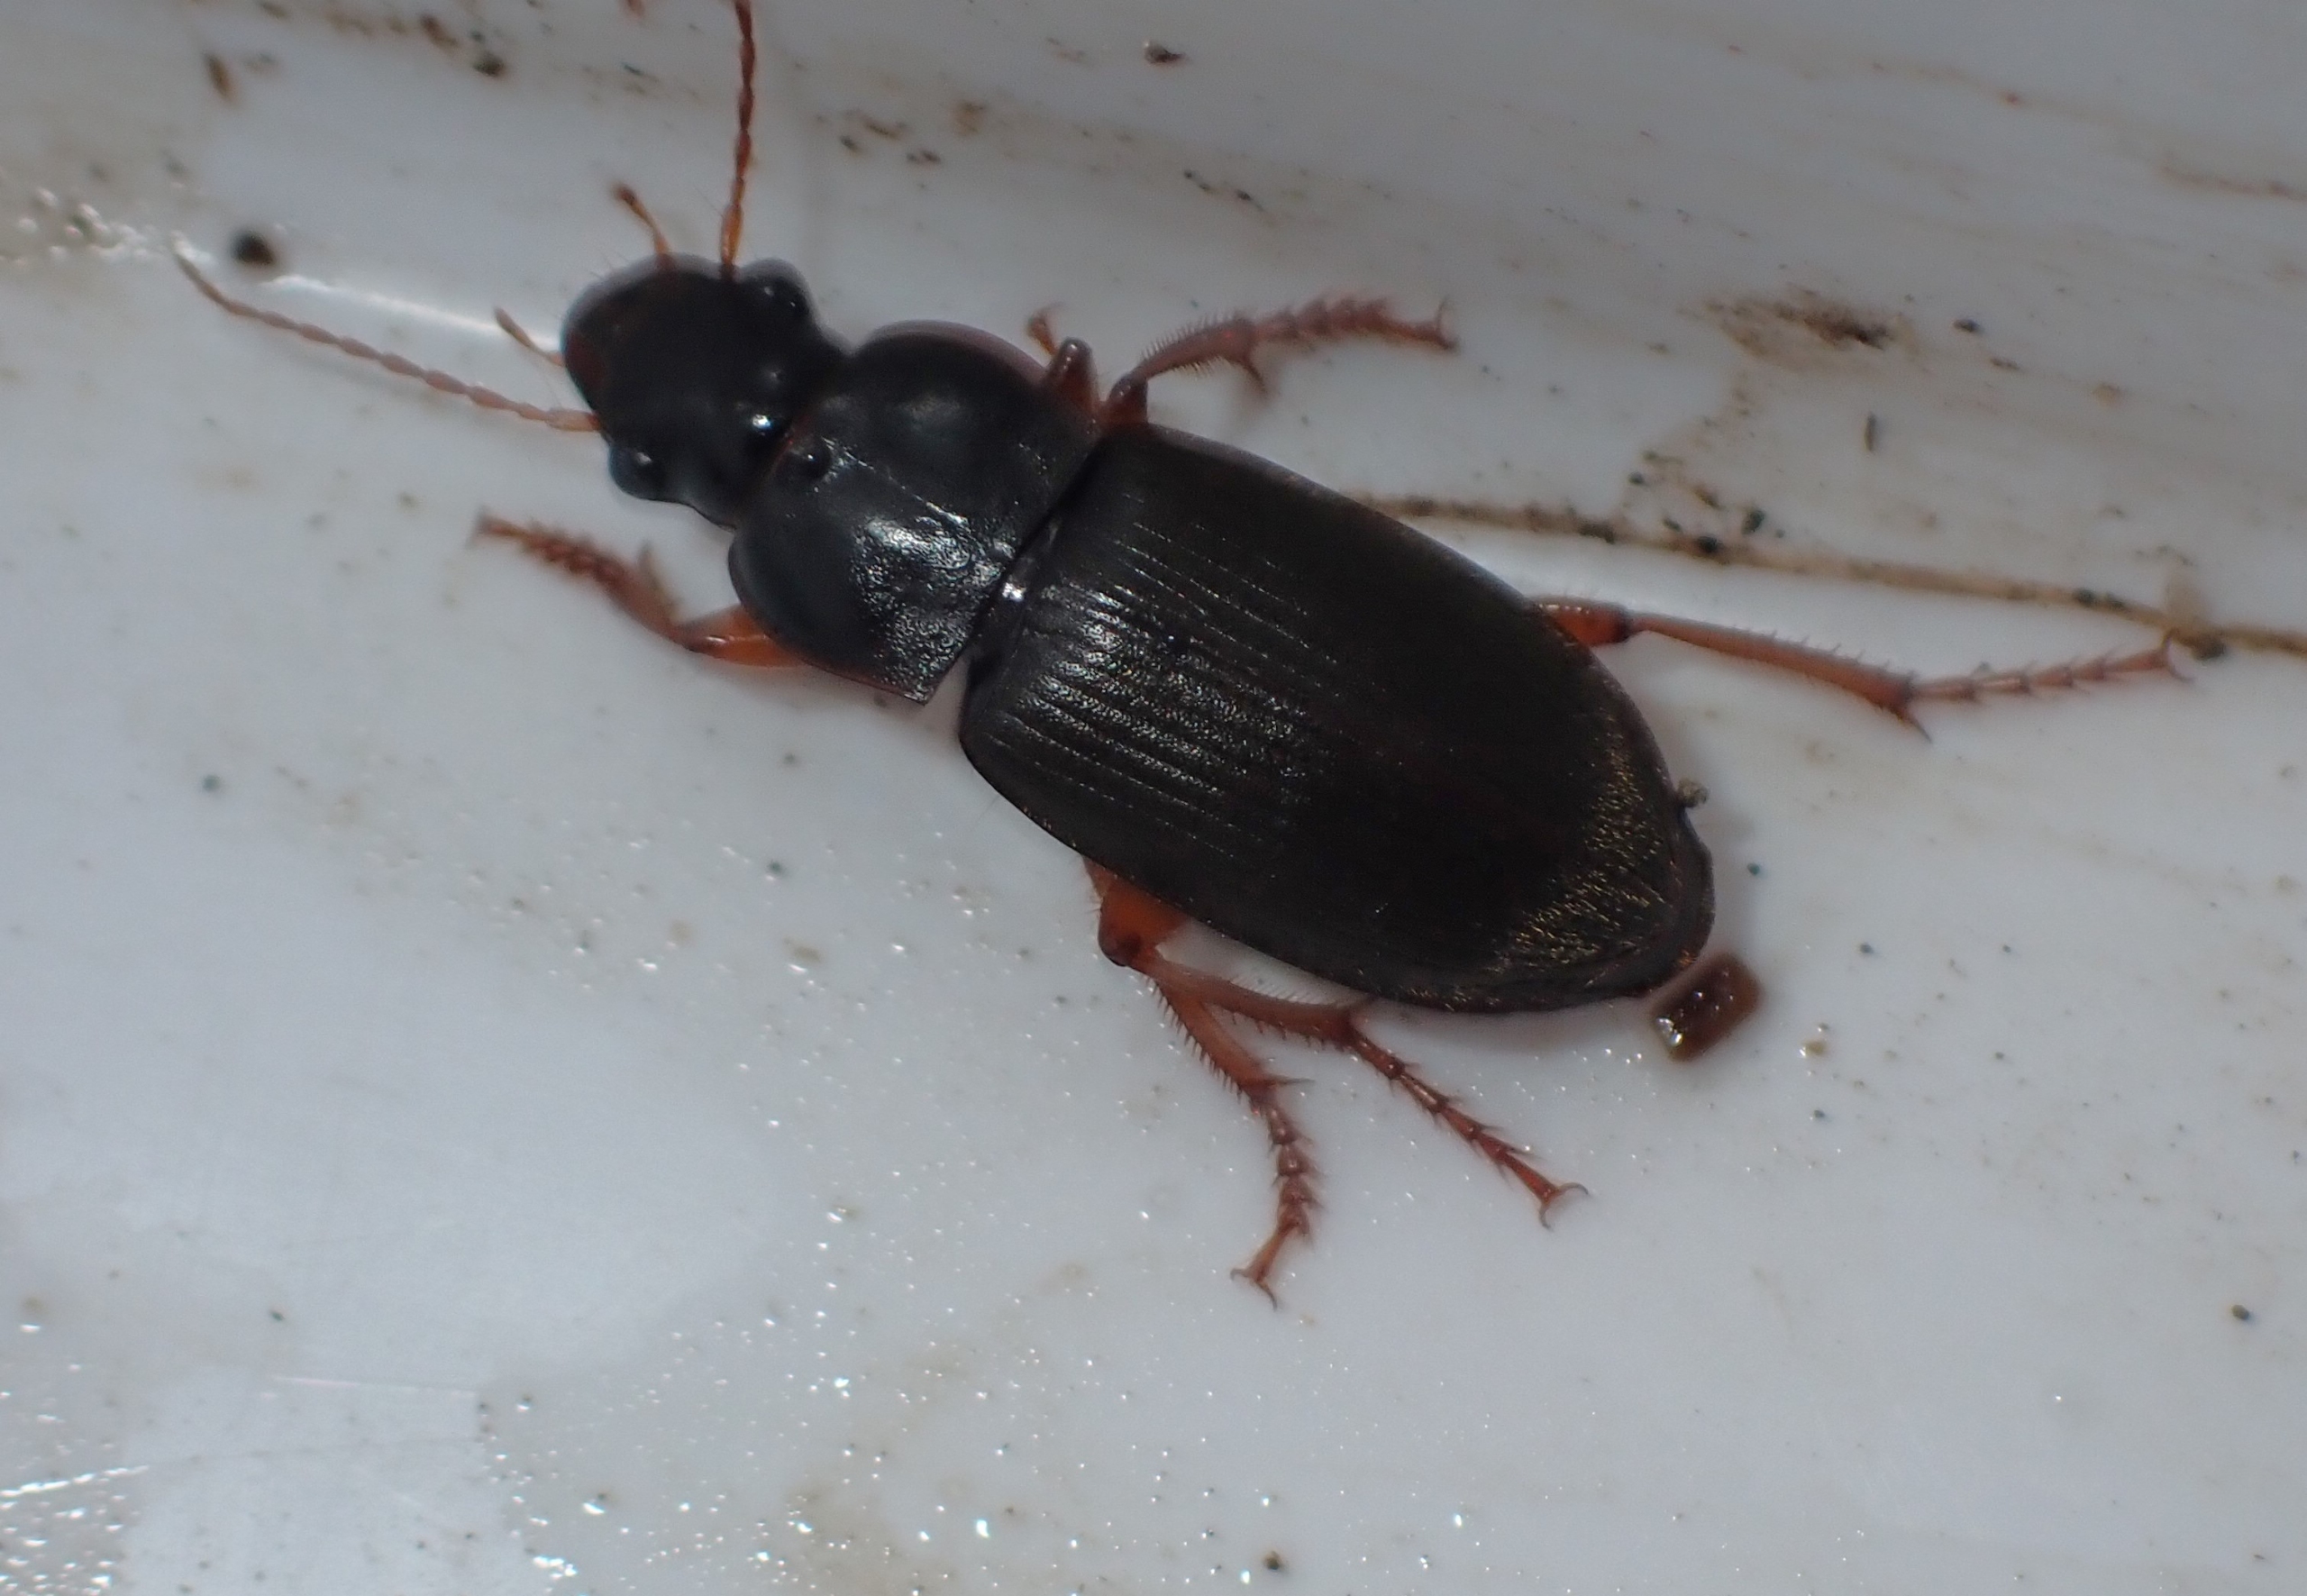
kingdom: Animalia
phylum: Arthropoda
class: Insecta
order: Coleoptera
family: Carabidae
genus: Harpalus
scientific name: Harpalus rufipes
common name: Håret markløber
